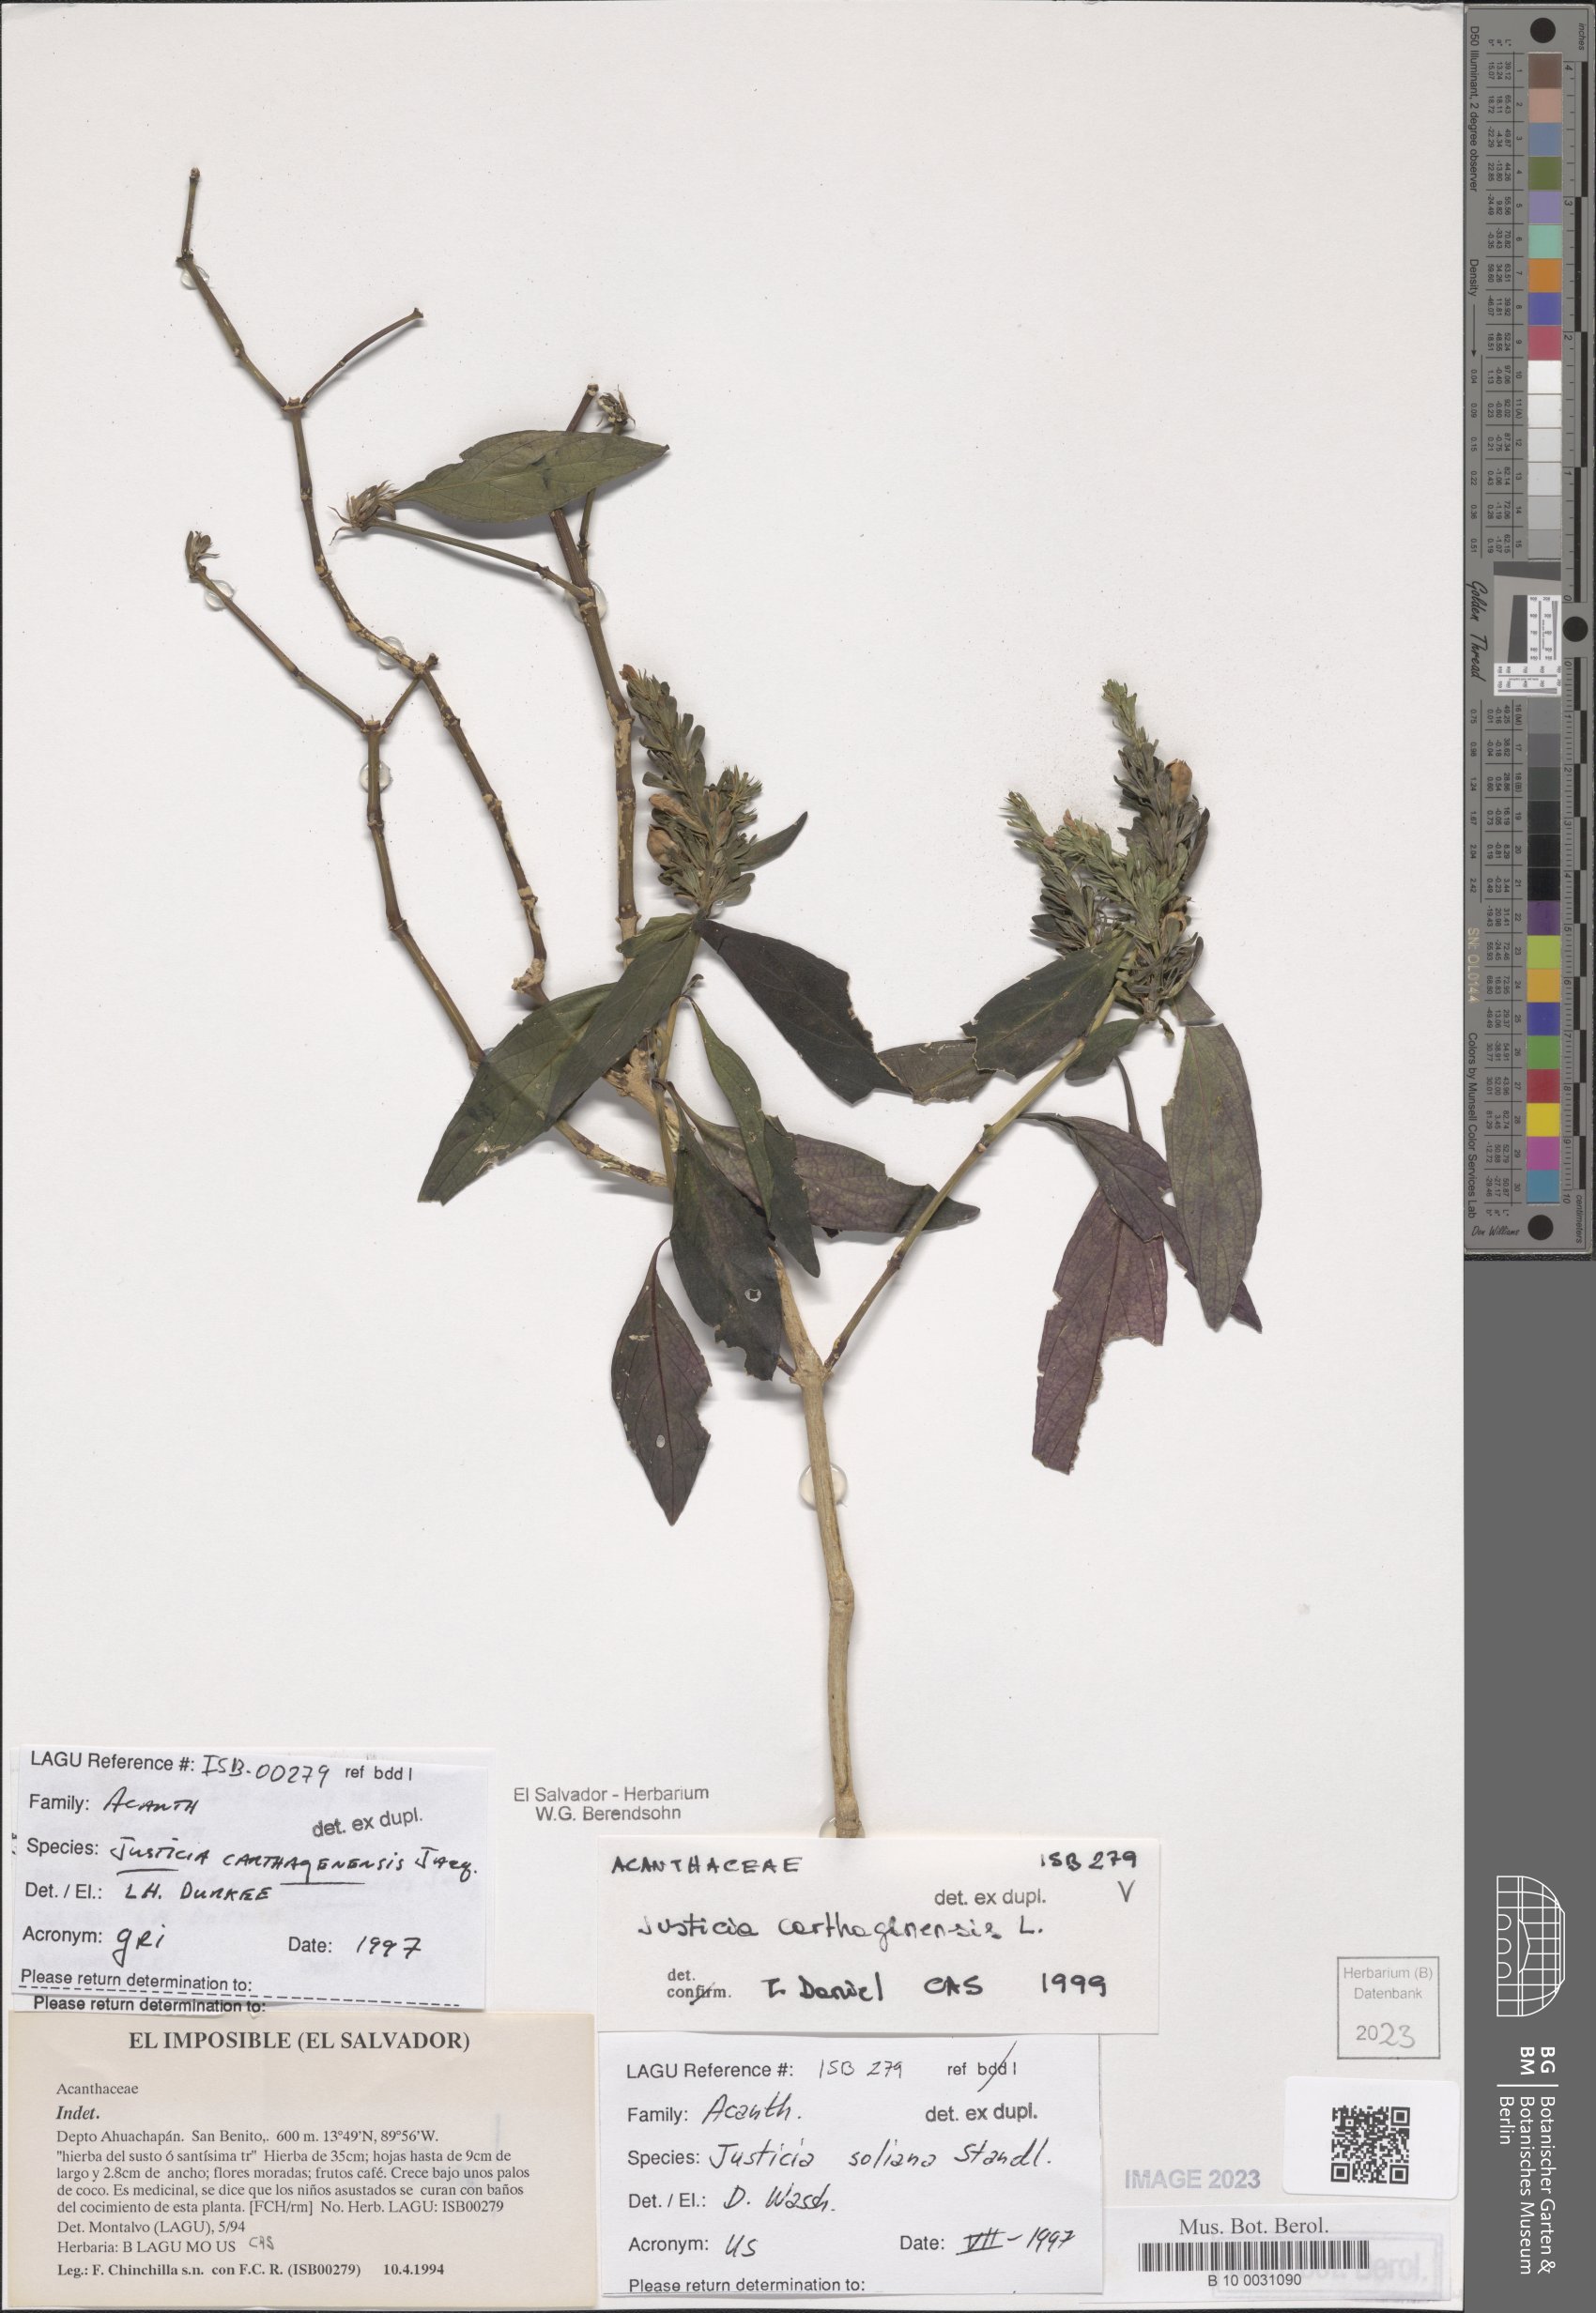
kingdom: Plantae
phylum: Tracheophyta
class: Magnoliopsida
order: Lamiales
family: Acanthaceae
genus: Justicia
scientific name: Justicia carthagenensis
